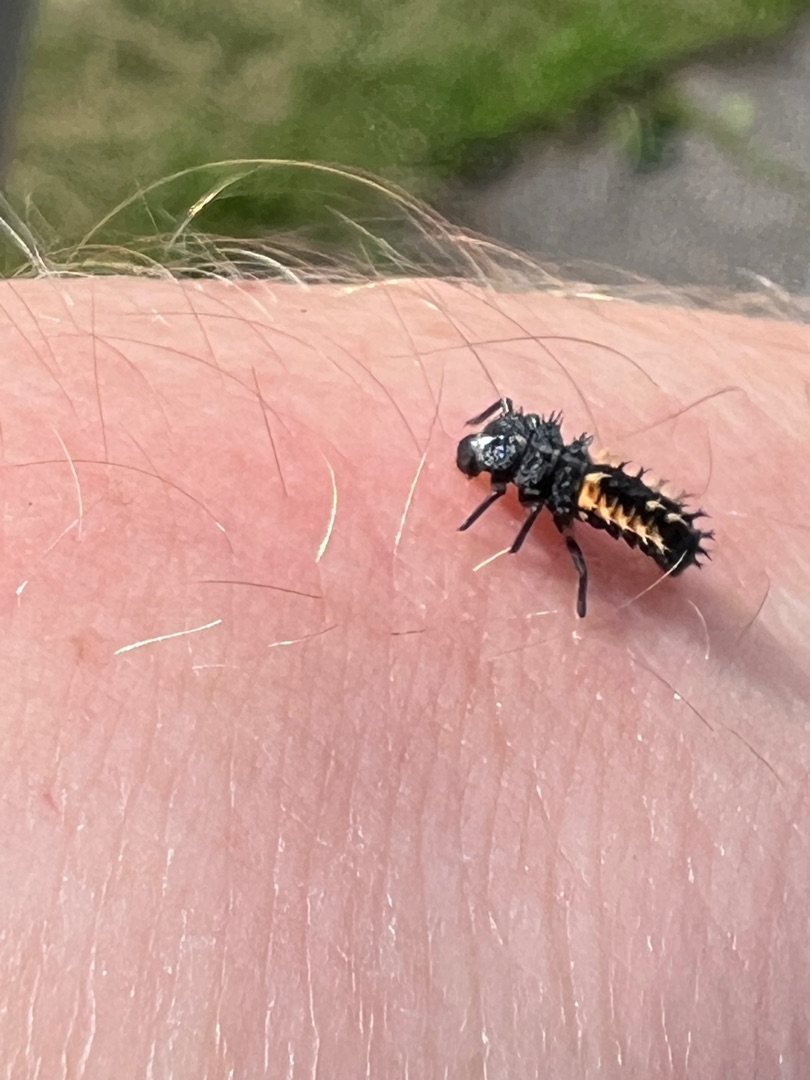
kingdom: Animalia
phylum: Arthropoda
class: Insecta
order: Coleoptera
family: Coccinellidae
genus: Harmonia
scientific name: Harmonia axyridis
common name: Harlekinmariehøne
